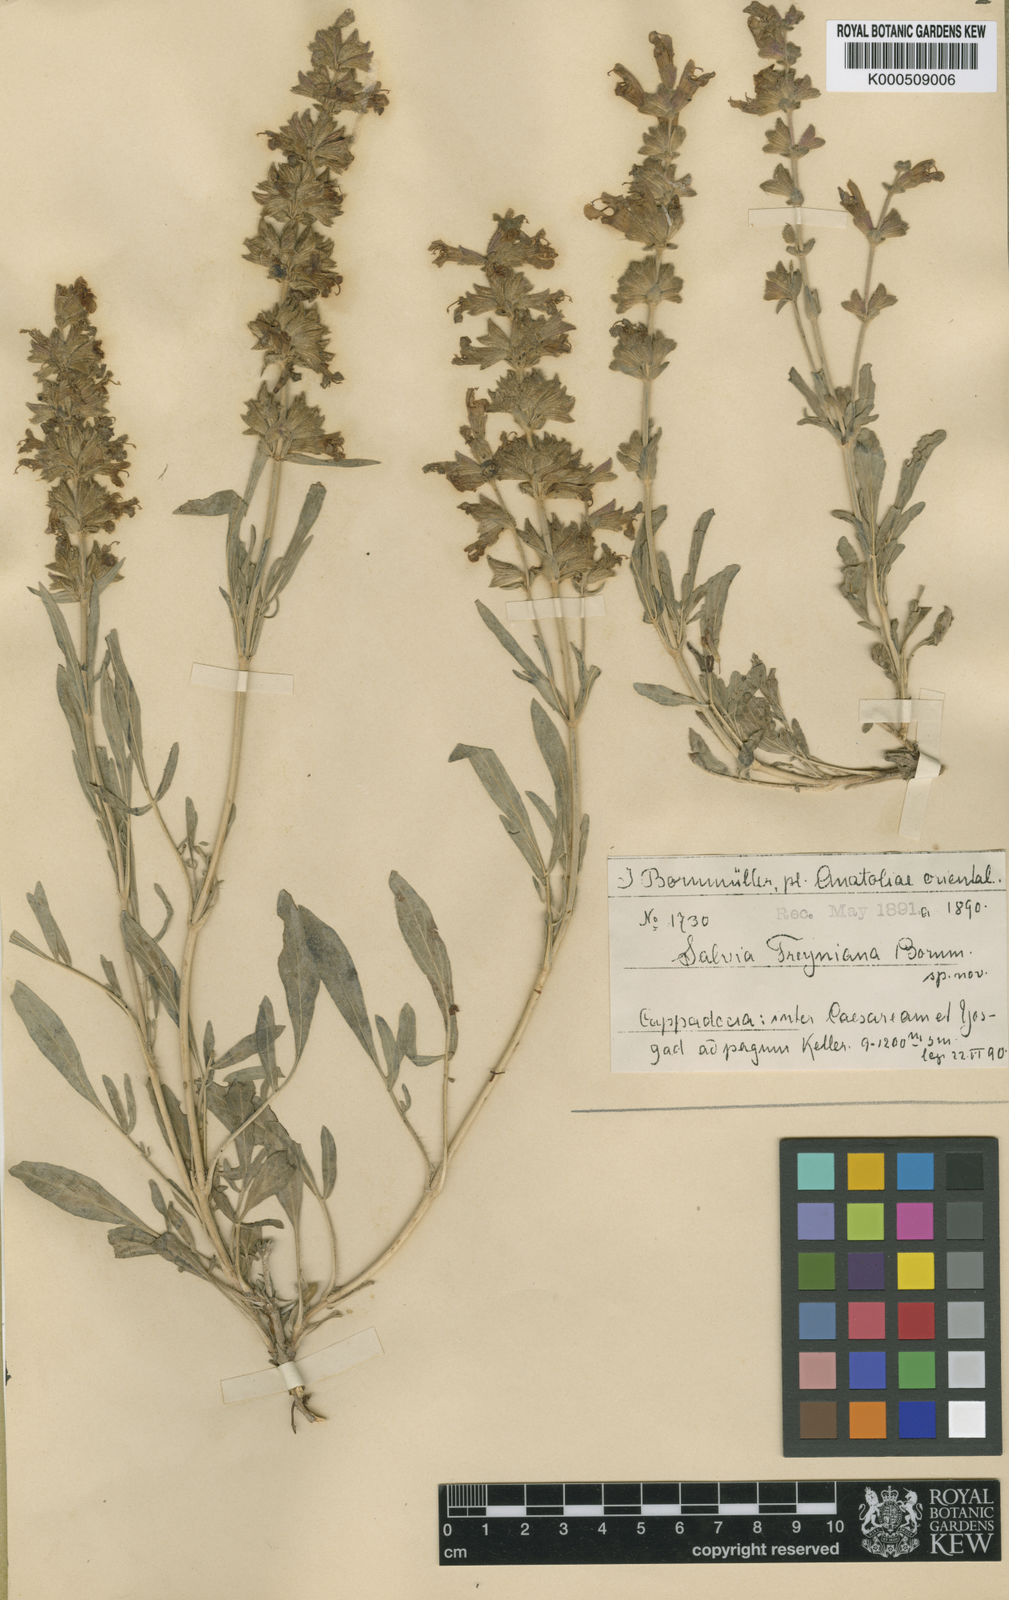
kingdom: Plantae
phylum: Tracheophyta
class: Magnoliopsida
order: Lamiales
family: Lamiaceae
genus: Salvia
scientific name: Salvia freyniana
